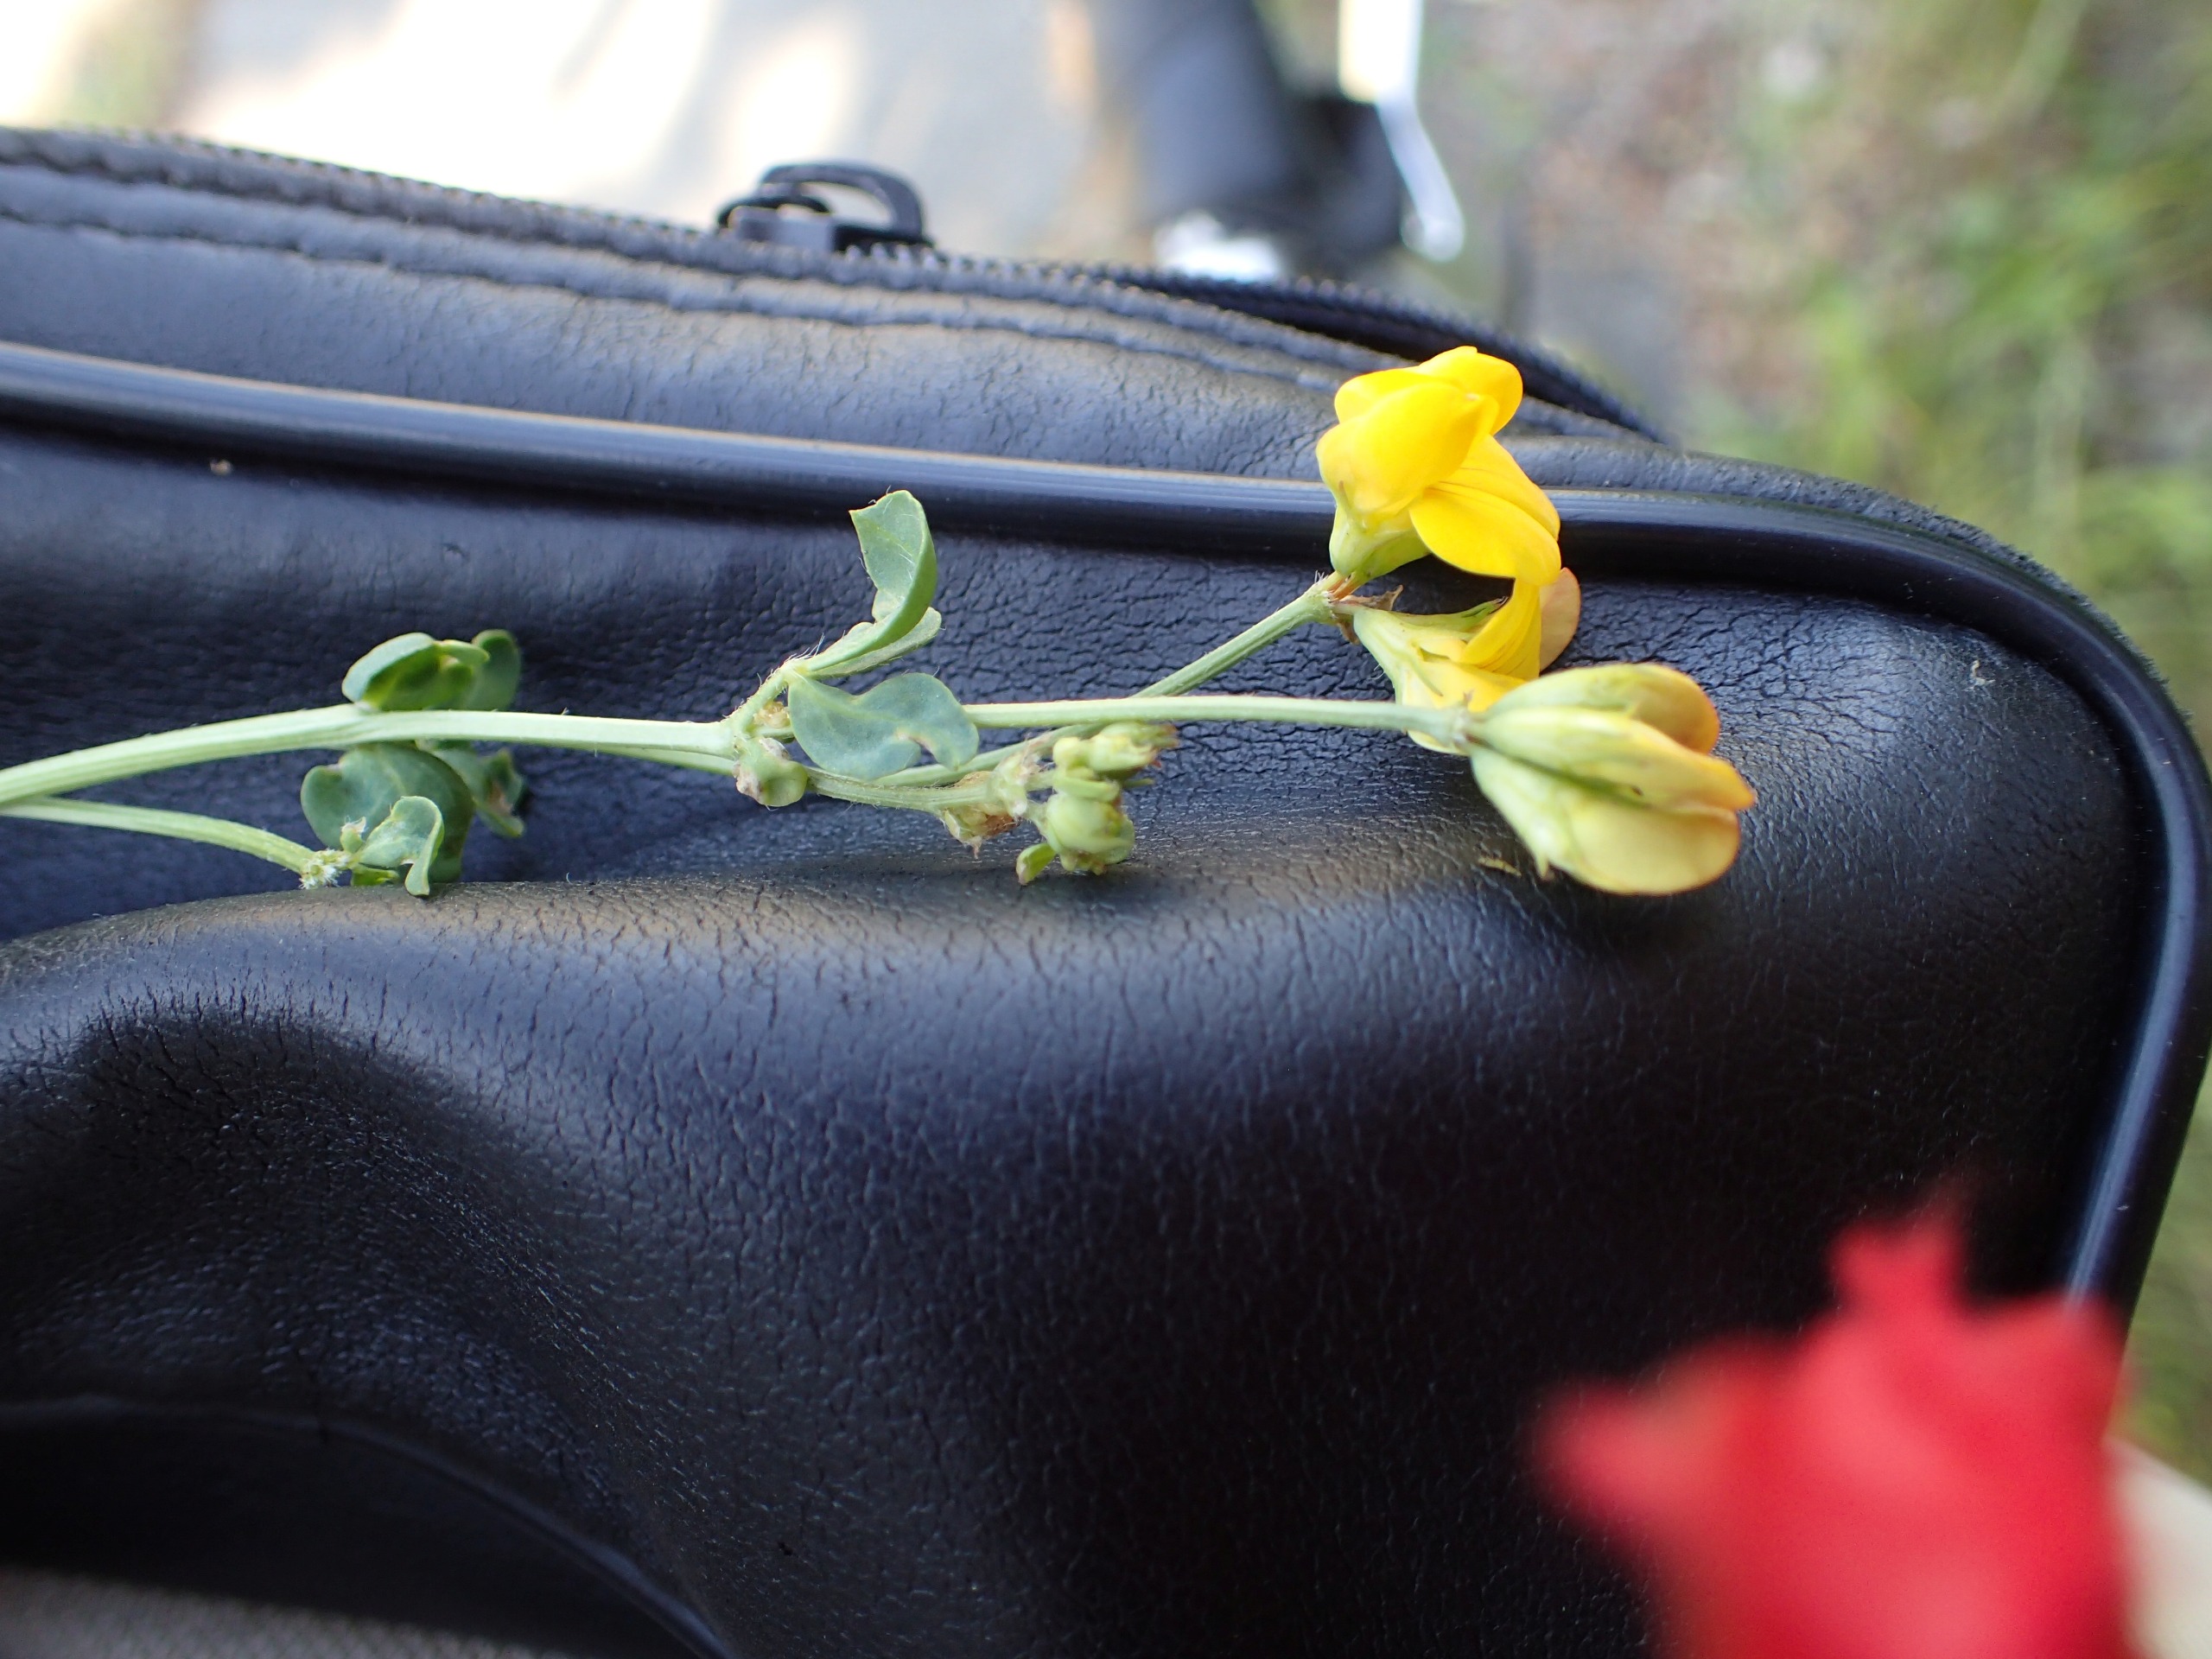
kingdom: Plantae
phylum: Tracheophyta
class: Magnoliopsida
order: Fabales
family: Fabaceae
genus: Lotus
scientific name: Lotus corniculatus
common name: Almindelig kællingetand
